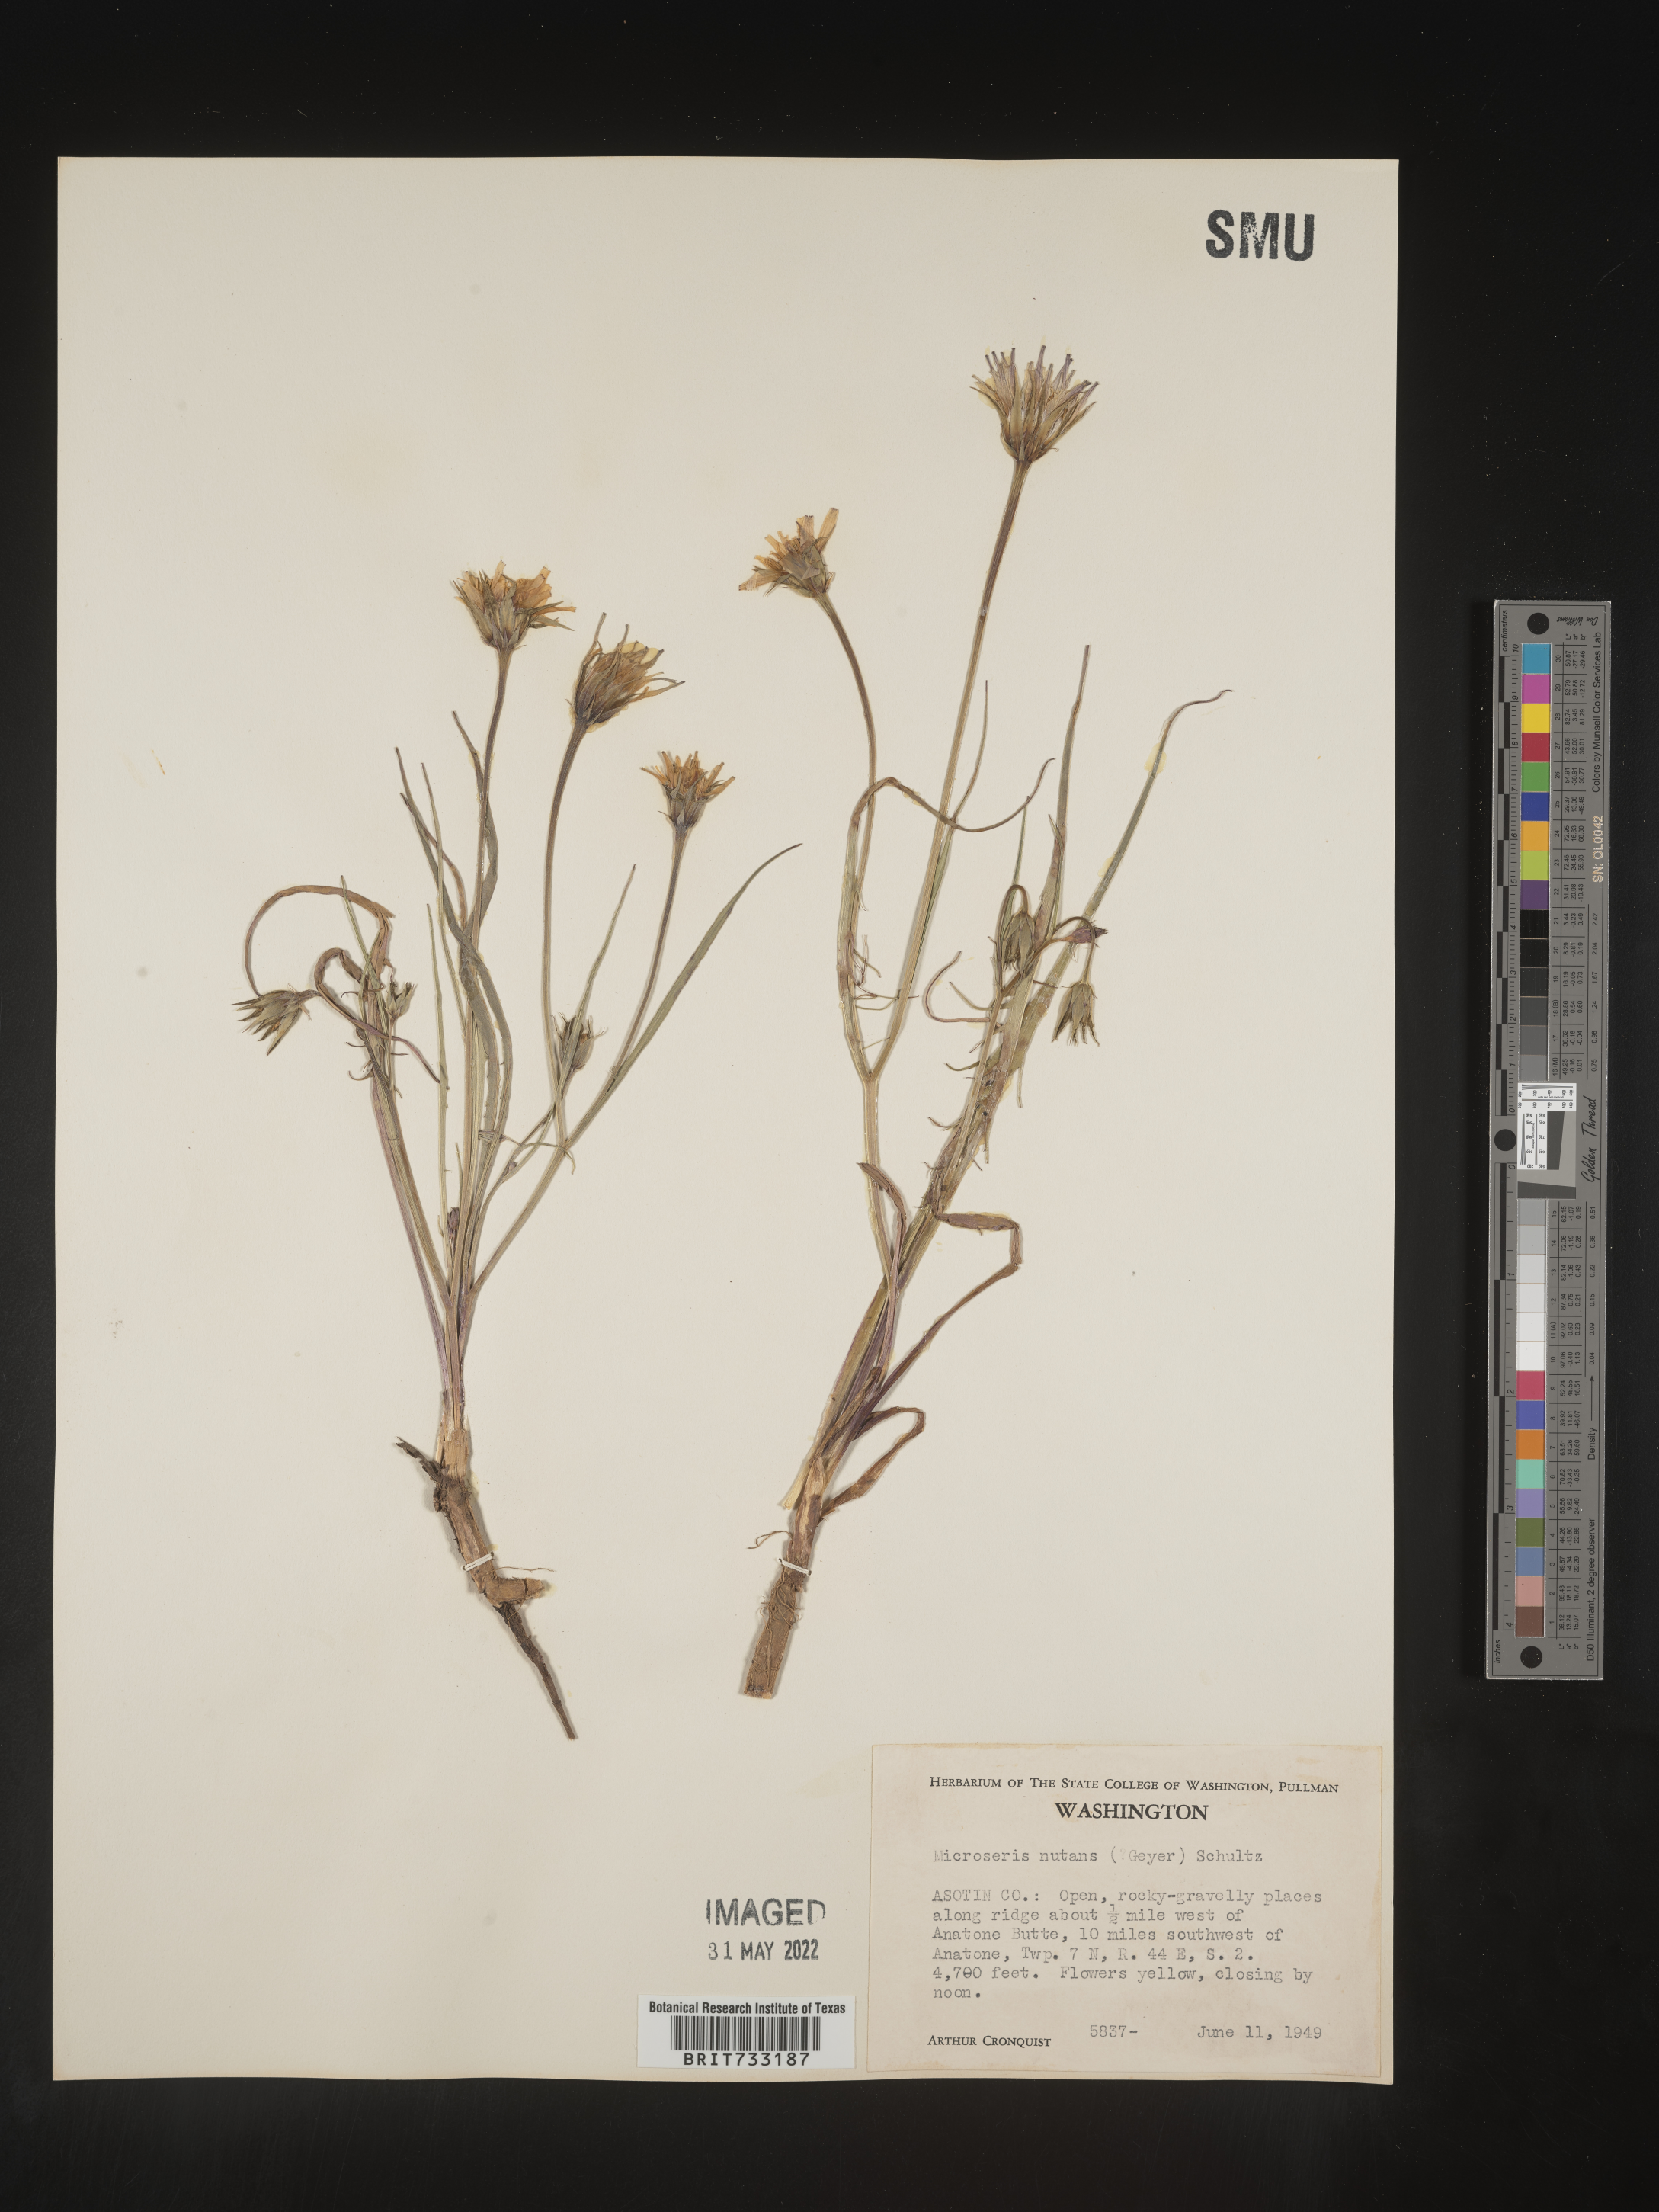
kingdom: Plantae
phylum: Tracheophyta
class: Magnoliopsida
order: Asterales
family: Asteraceae
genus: Microseris
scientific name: Microseris nutans
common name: Nodding microseris
